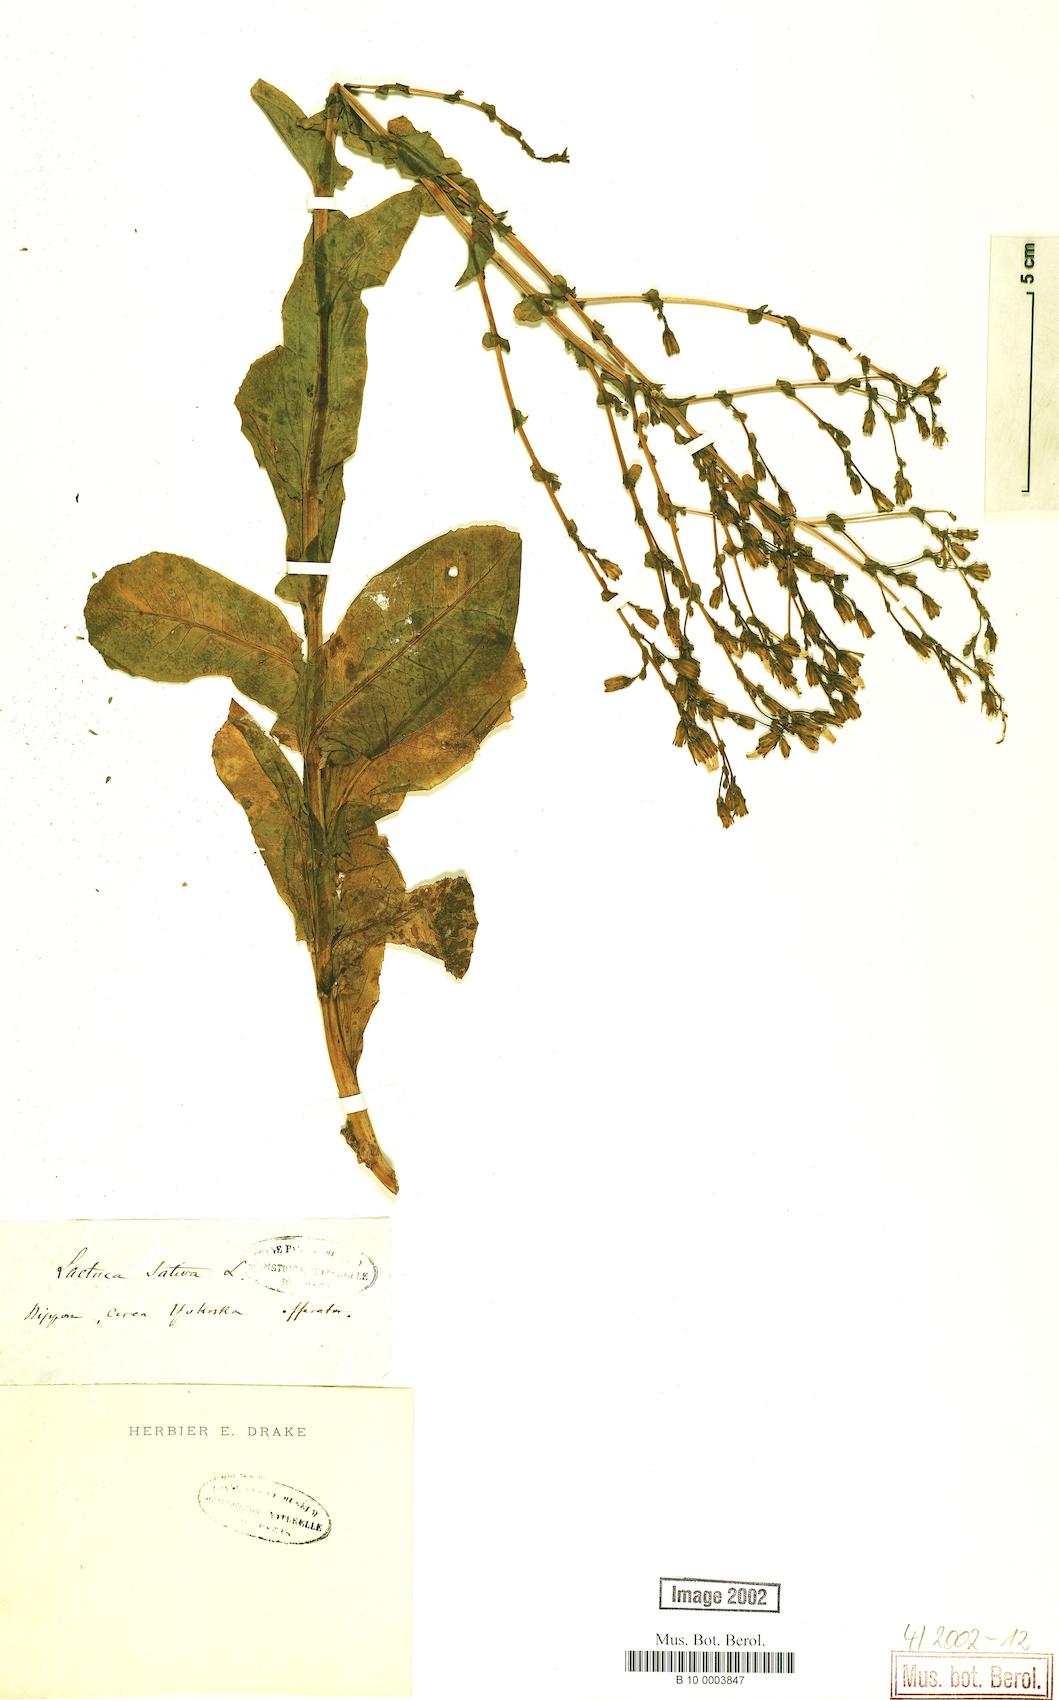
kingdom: Plantae
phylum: Tracheophyta
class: Magnoliopsida
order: Asterales
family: Asteraceae
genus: Lactuca
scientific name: Lactuca sativa
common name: Garden lettuce
